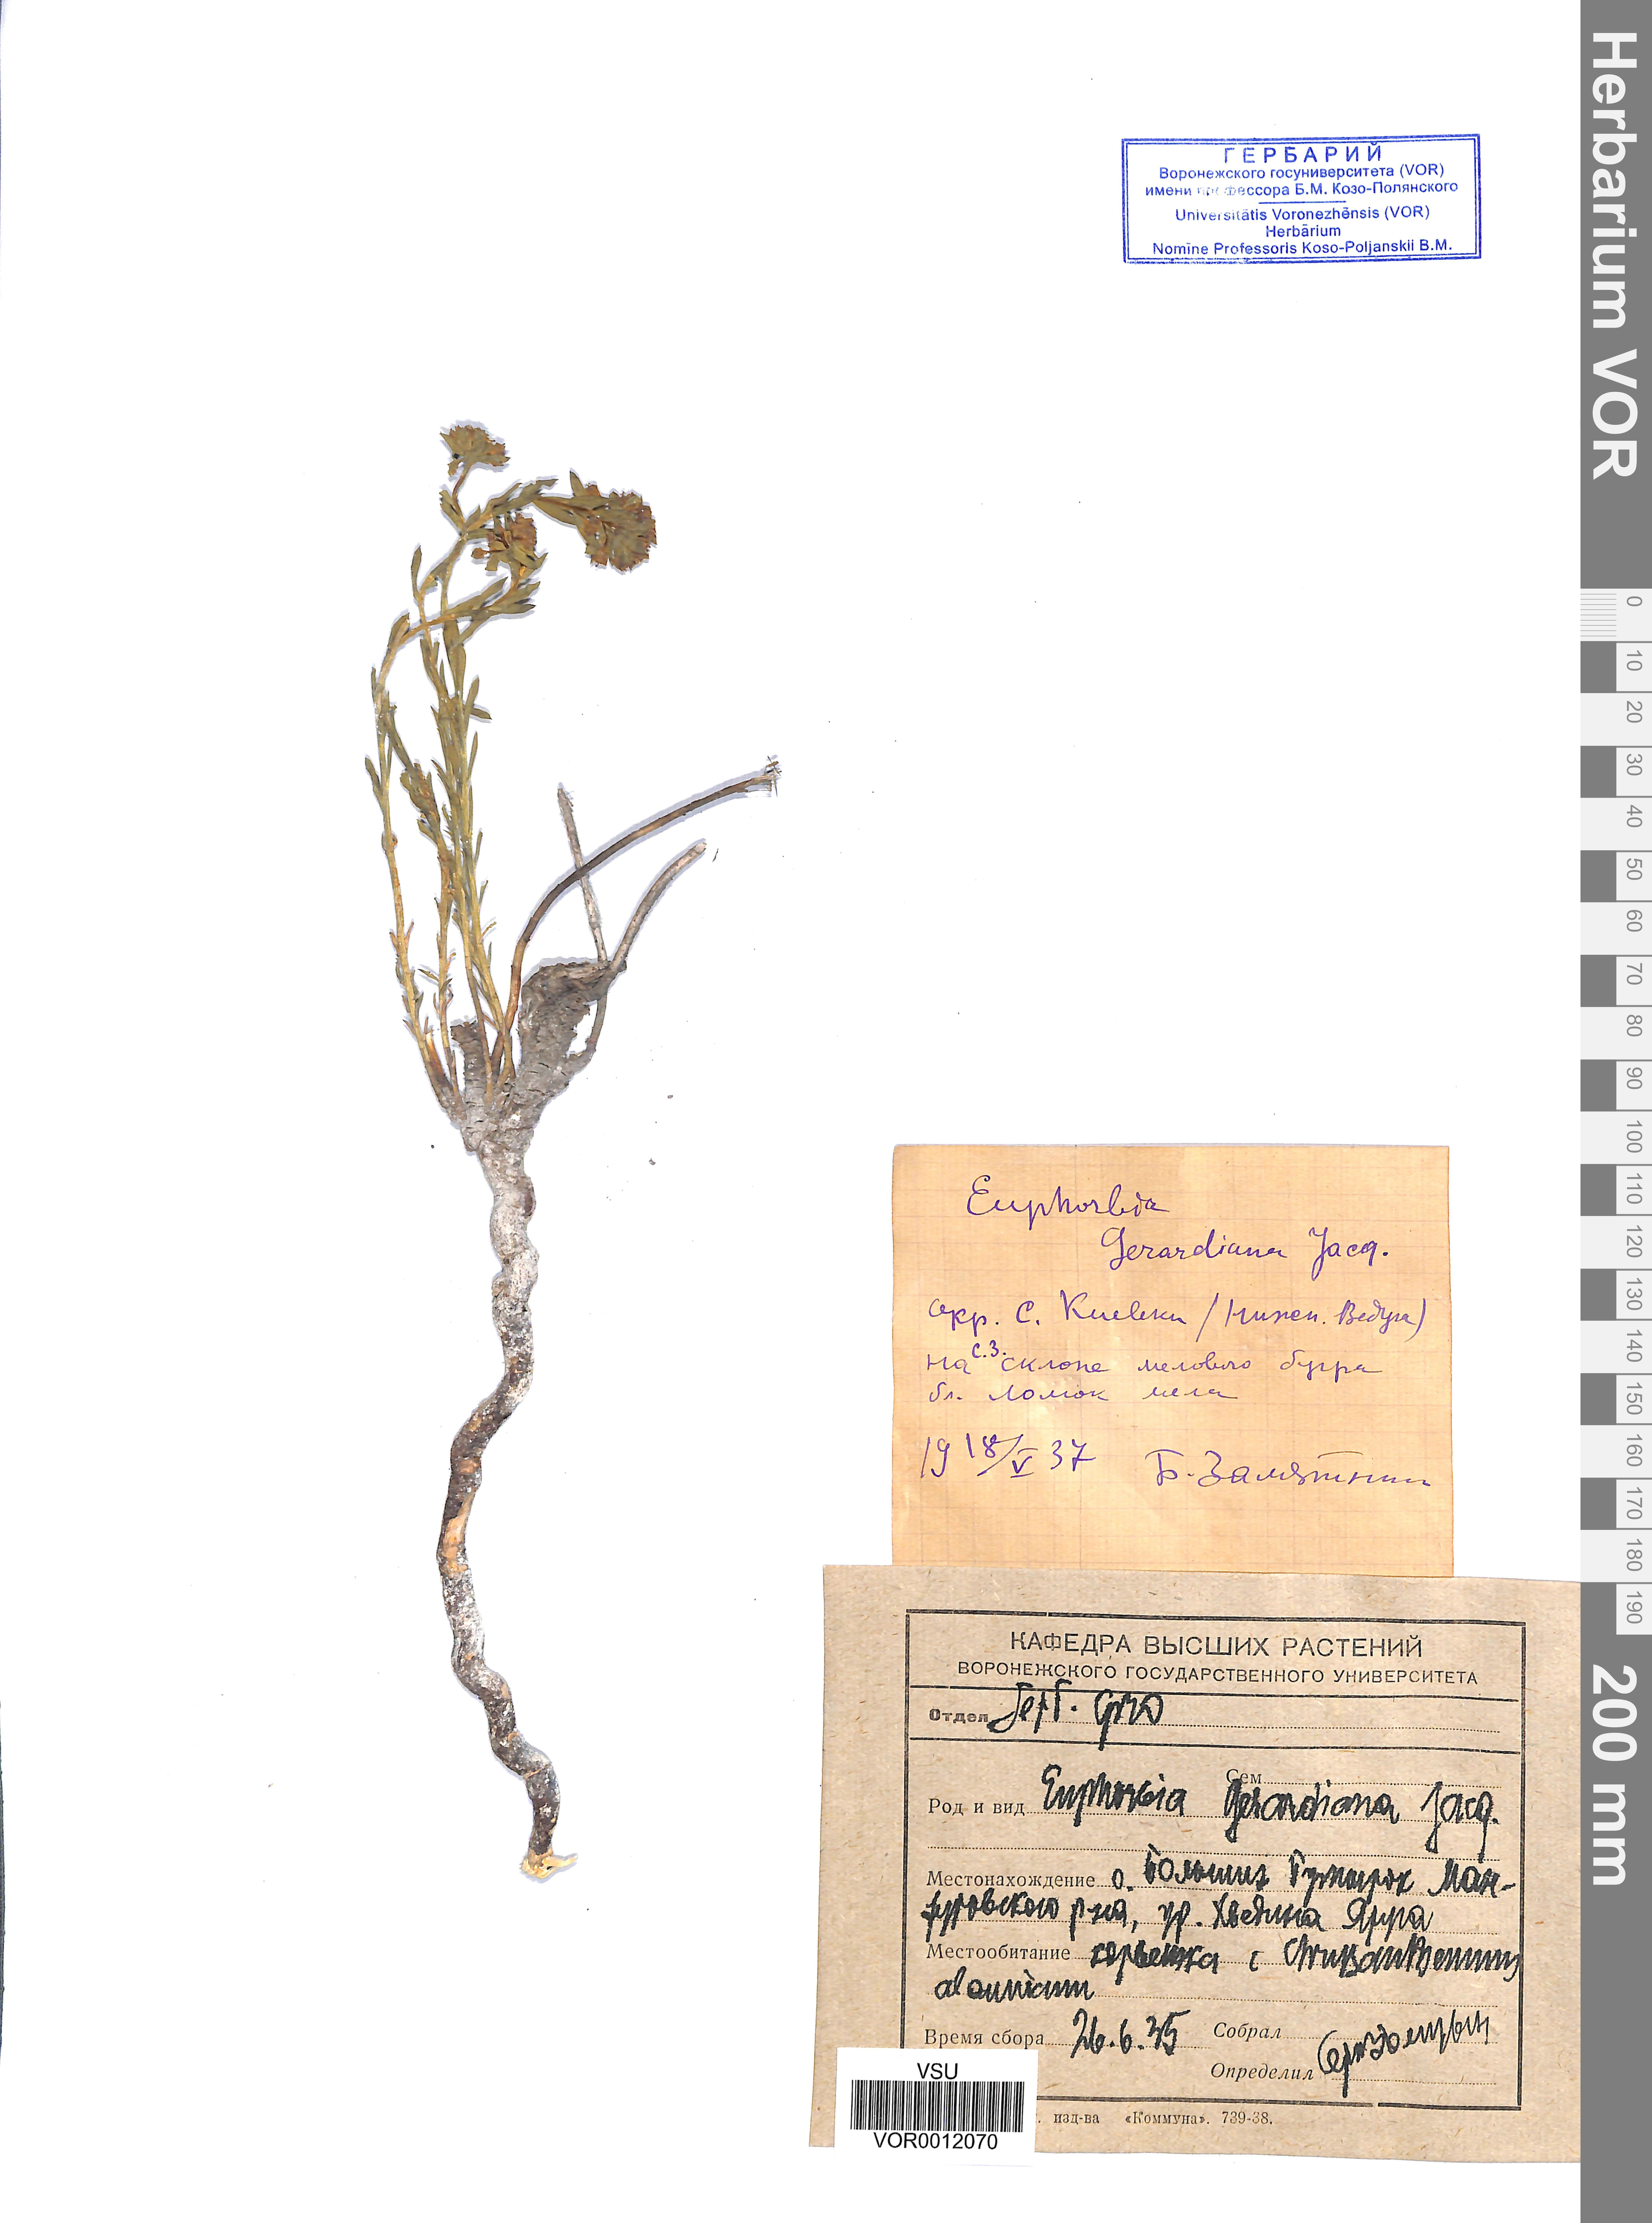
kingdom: Plantae
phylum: Tracheophyta
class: Magnoliopsida
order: Malpighiales
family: Euphorbiaceae
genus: Euphorbia
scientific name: Euphorbia seguieriana
